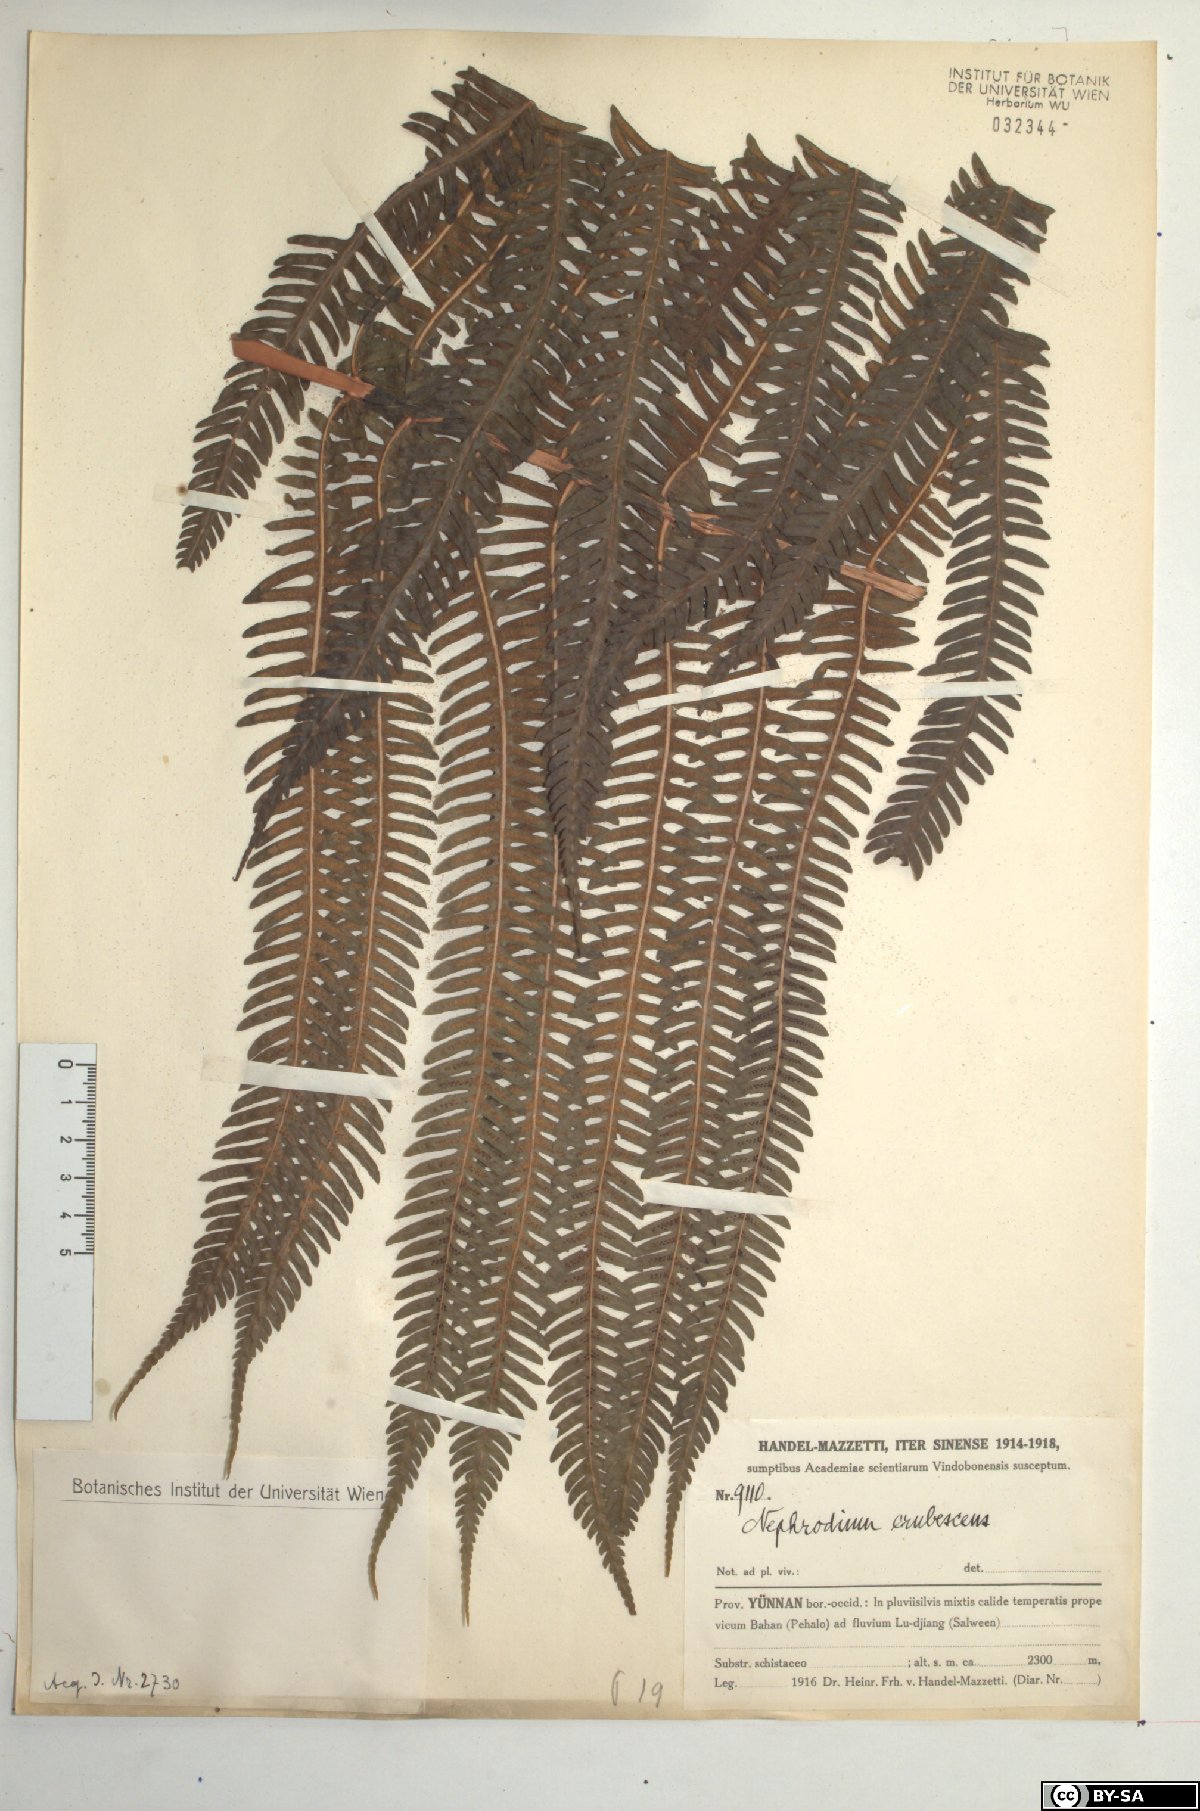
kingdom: Plantae
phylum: Tracheophyta
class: Polypodiopsida
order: Polypodiales
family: Thelypteridaceae
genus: Glaphyropteridopsis
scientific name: Glaphyropteridopsis erubescens
